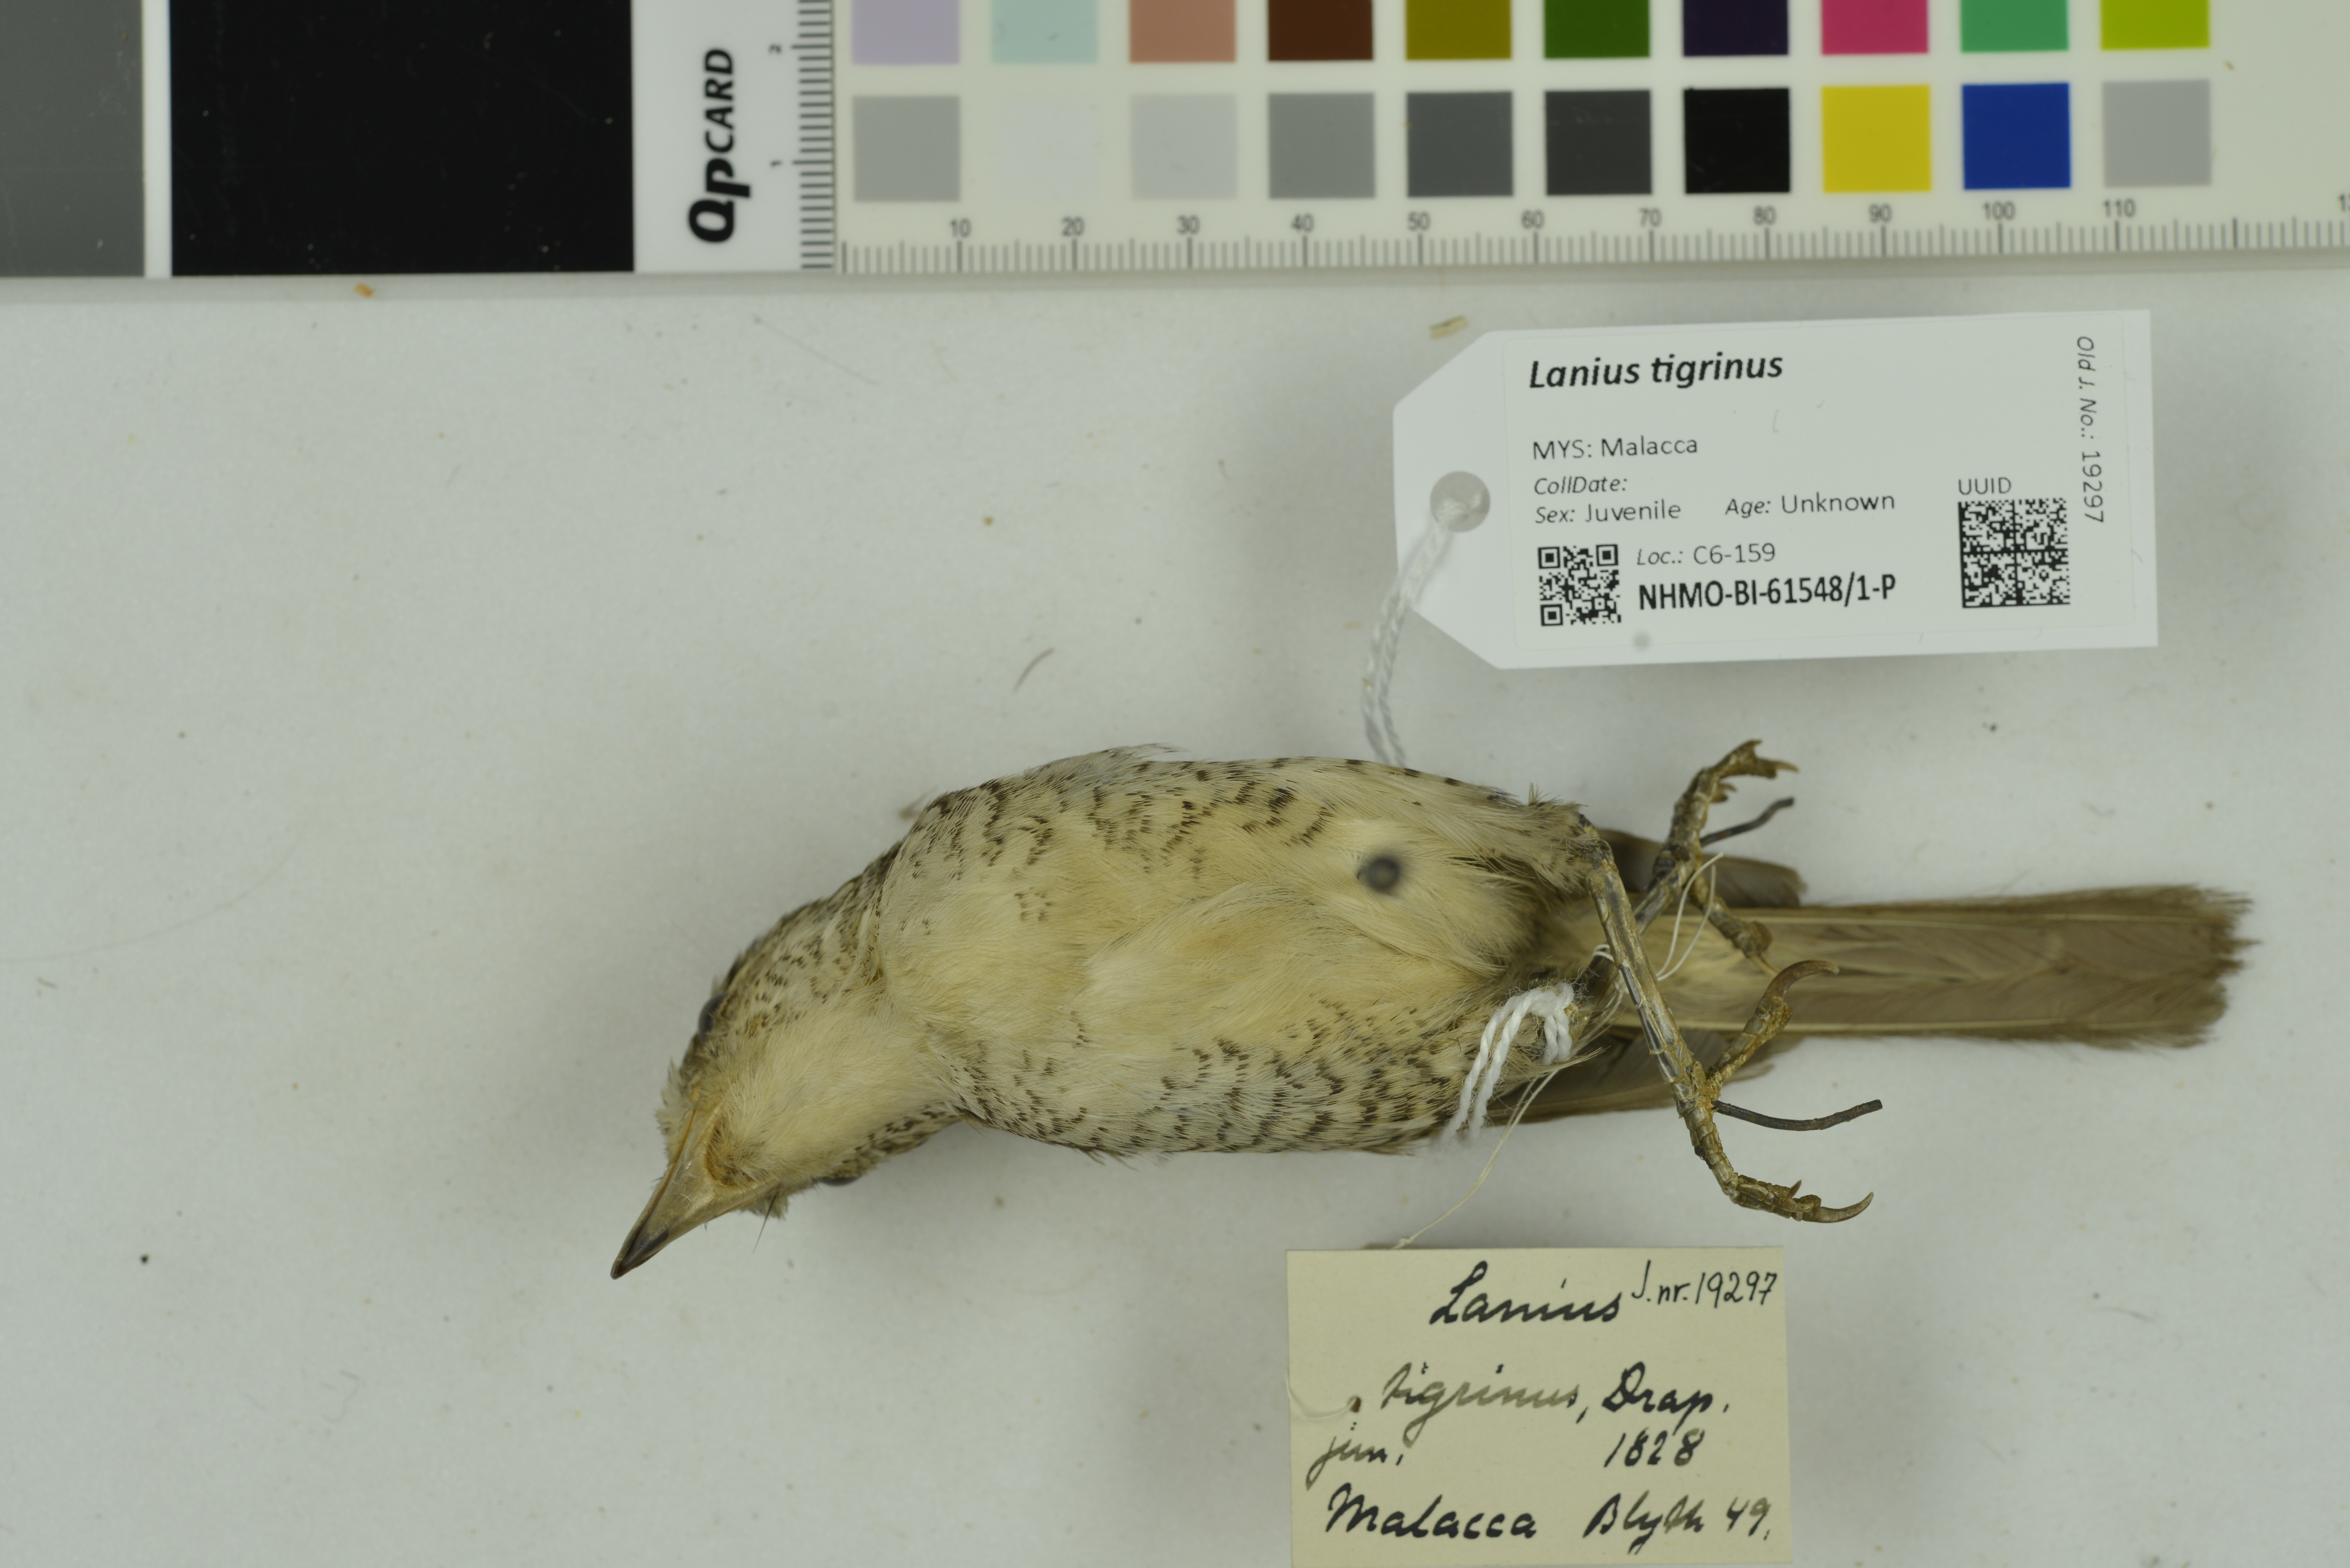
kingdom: Animalia
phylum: Chordata
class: Aves
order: Passeriformes
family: Laniidae
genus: Lanius
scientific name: Lanius tigrinus
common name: Tiger shrike
